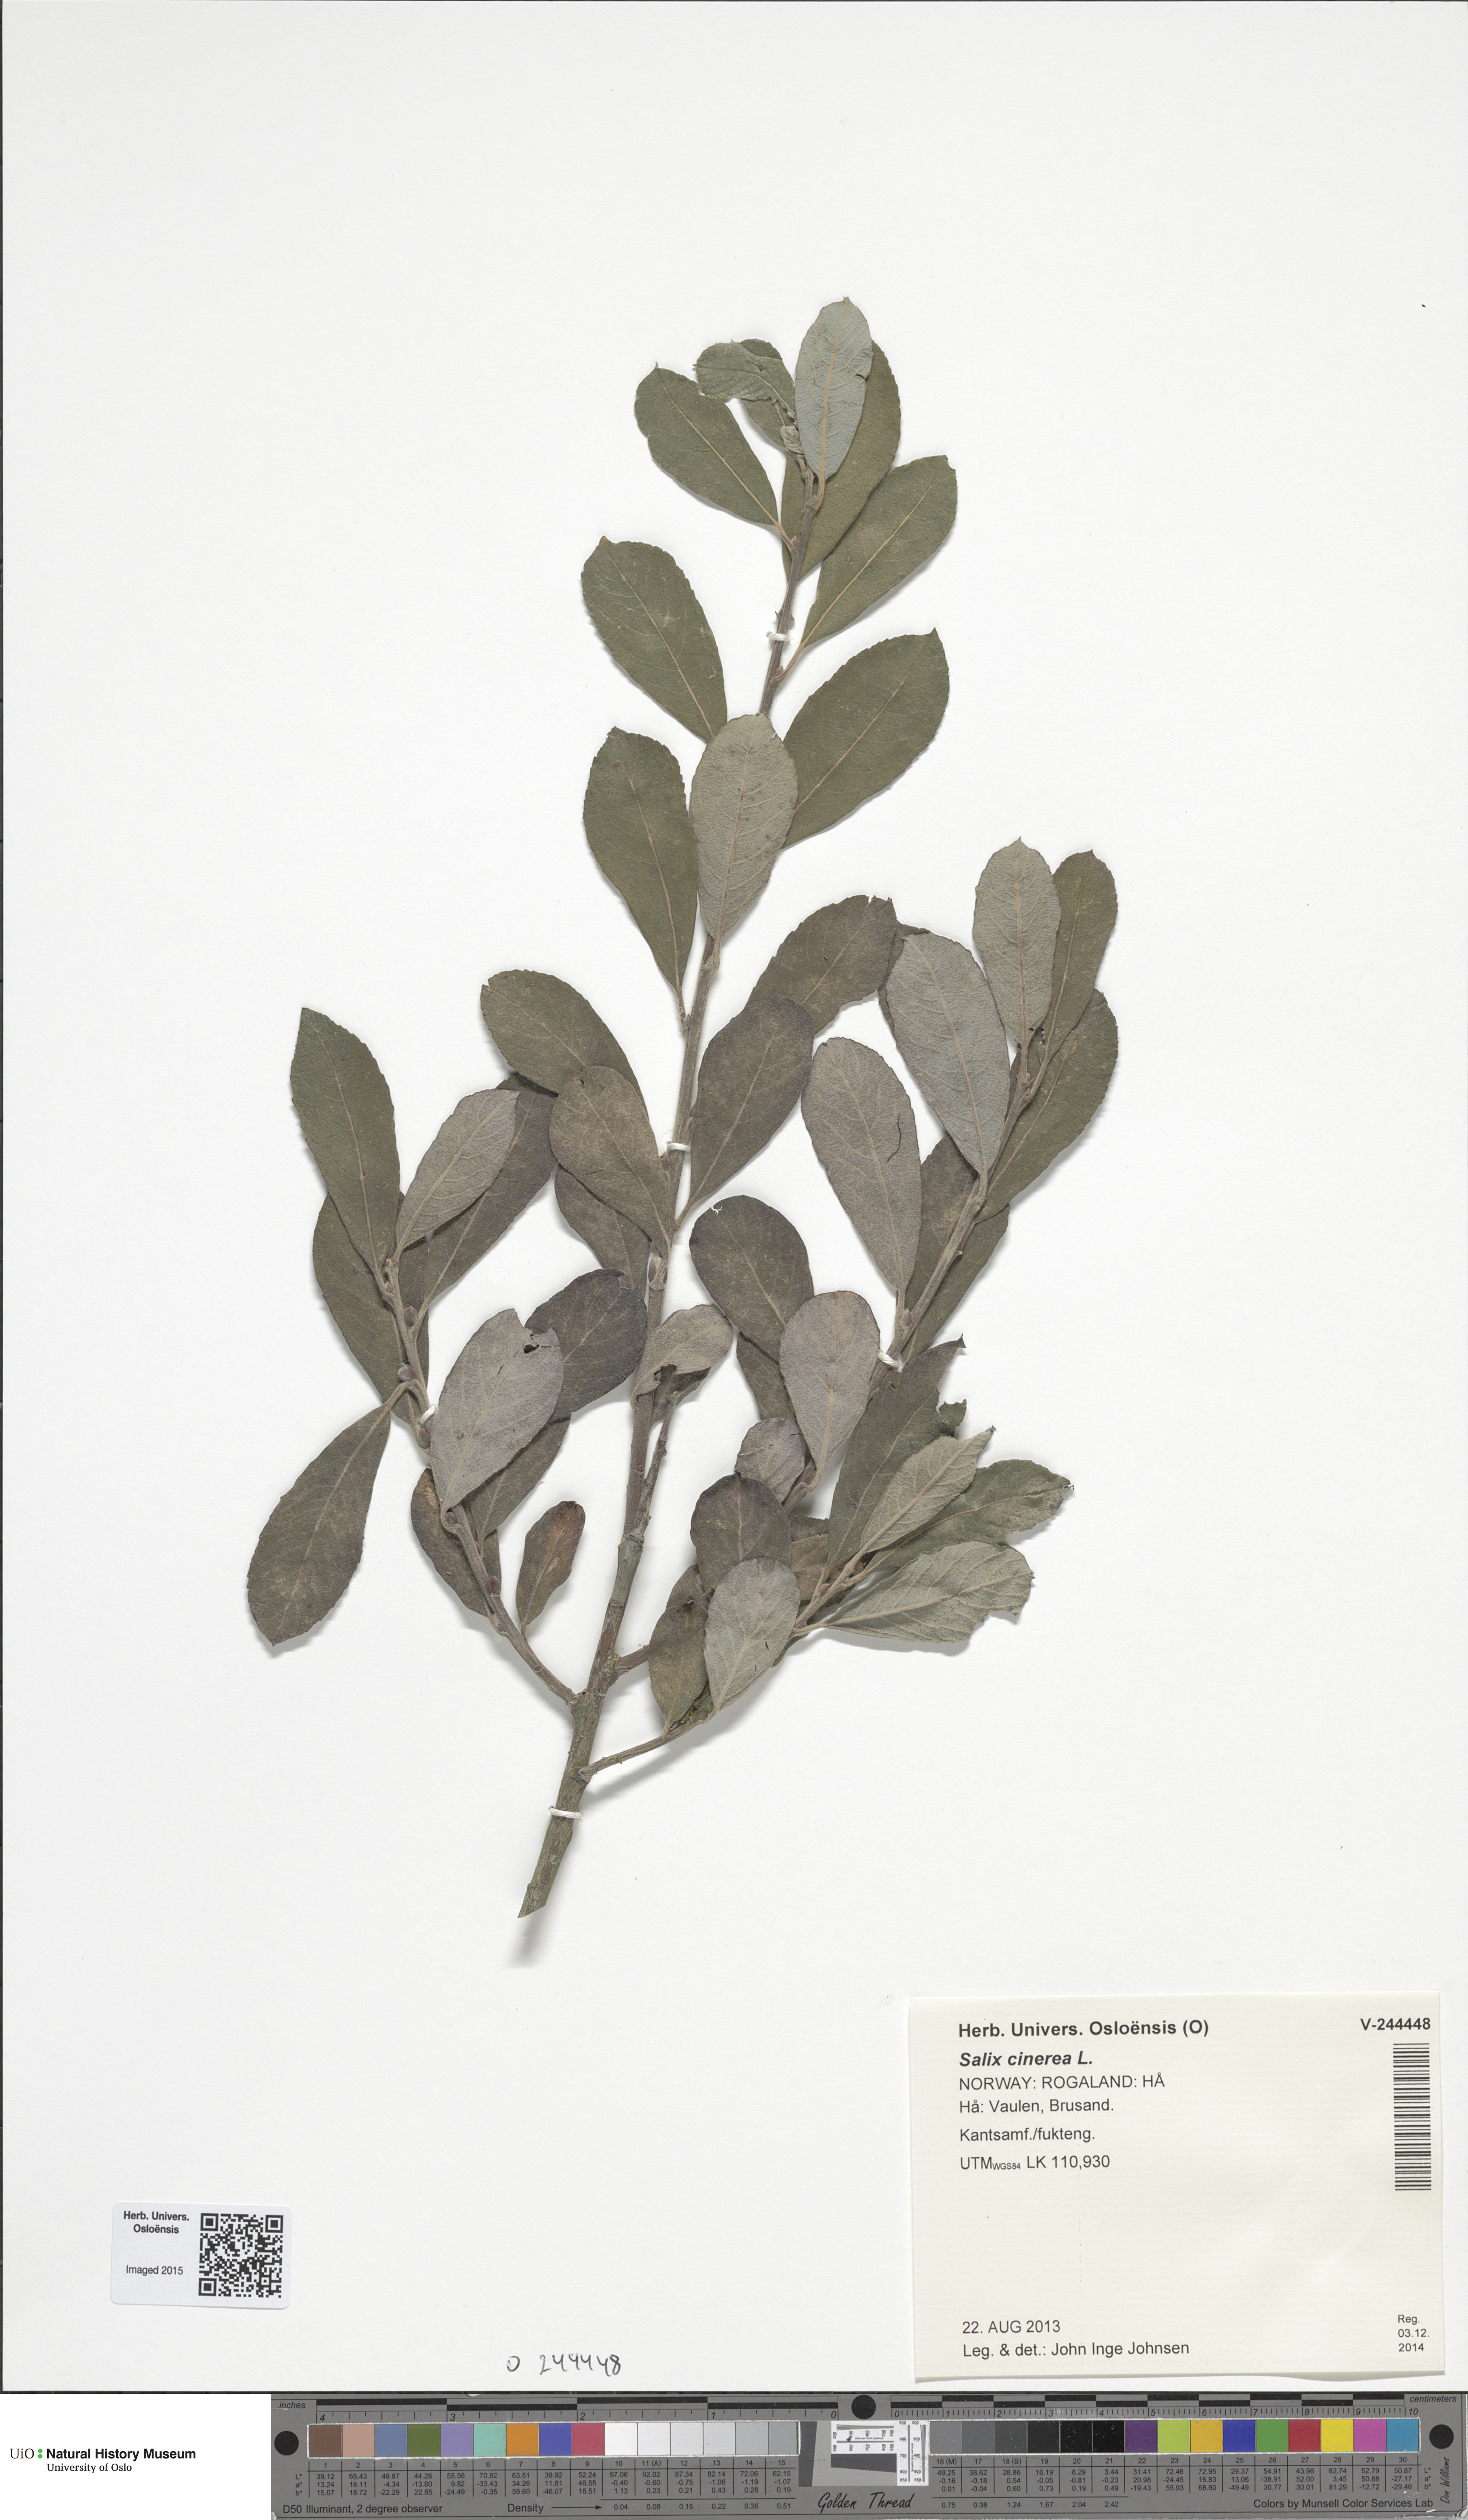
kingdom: Plantae
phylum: Tracheophyta
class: Magnoliopsida
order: Malpighiales
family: Salicaceae
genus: Salix
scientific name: Salix cinerea
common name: Common sallow
